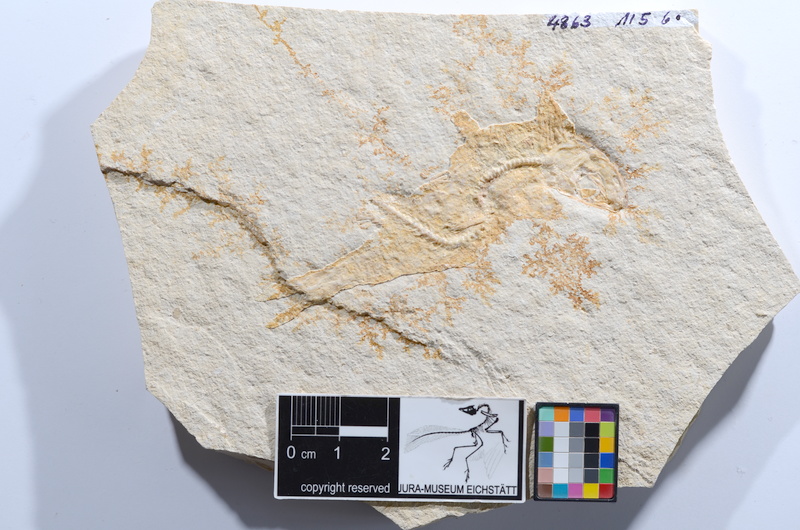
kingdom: Animalia
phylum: Chordata
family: Ascalaboidae
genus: Tharsis
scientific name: Tharsis dubius
